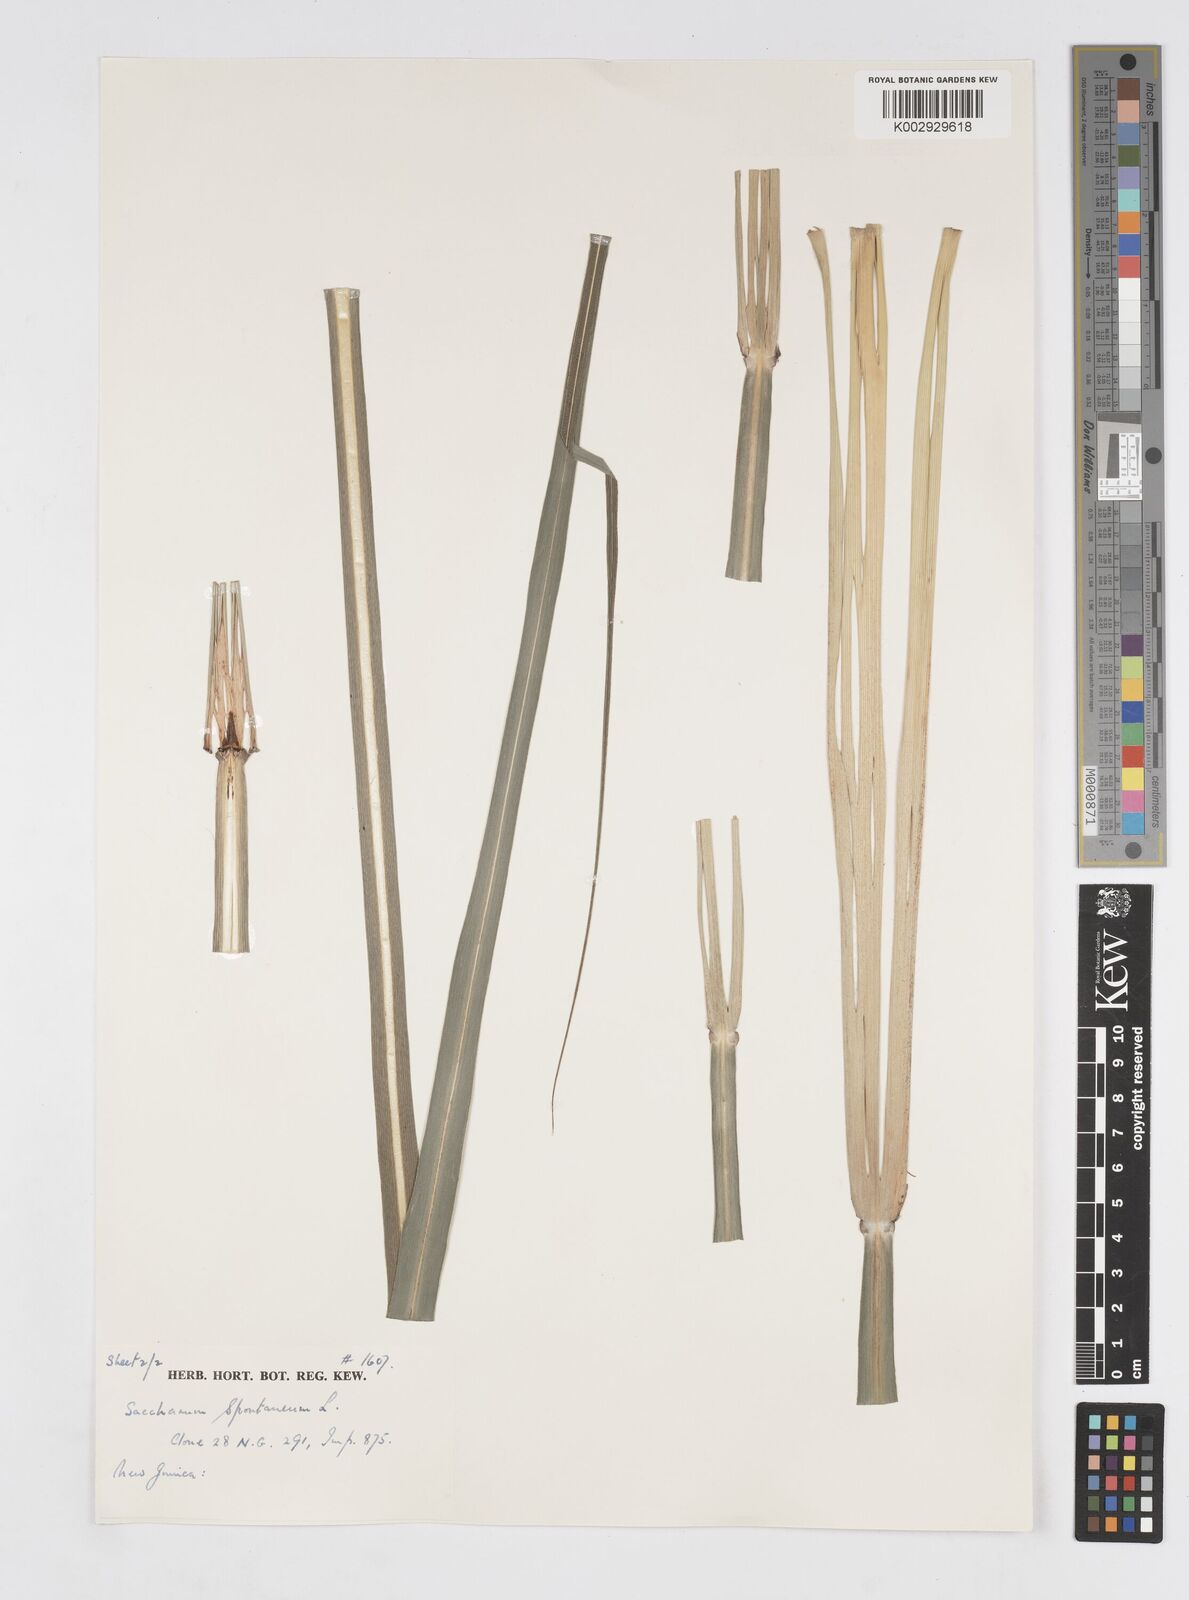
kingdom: Plantae
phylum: Tracheophyta
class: Liliopsida
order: Poales
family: Poaceae
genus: Saccharum
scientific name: Saccharum spontaneum
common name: Wild sugarcane
